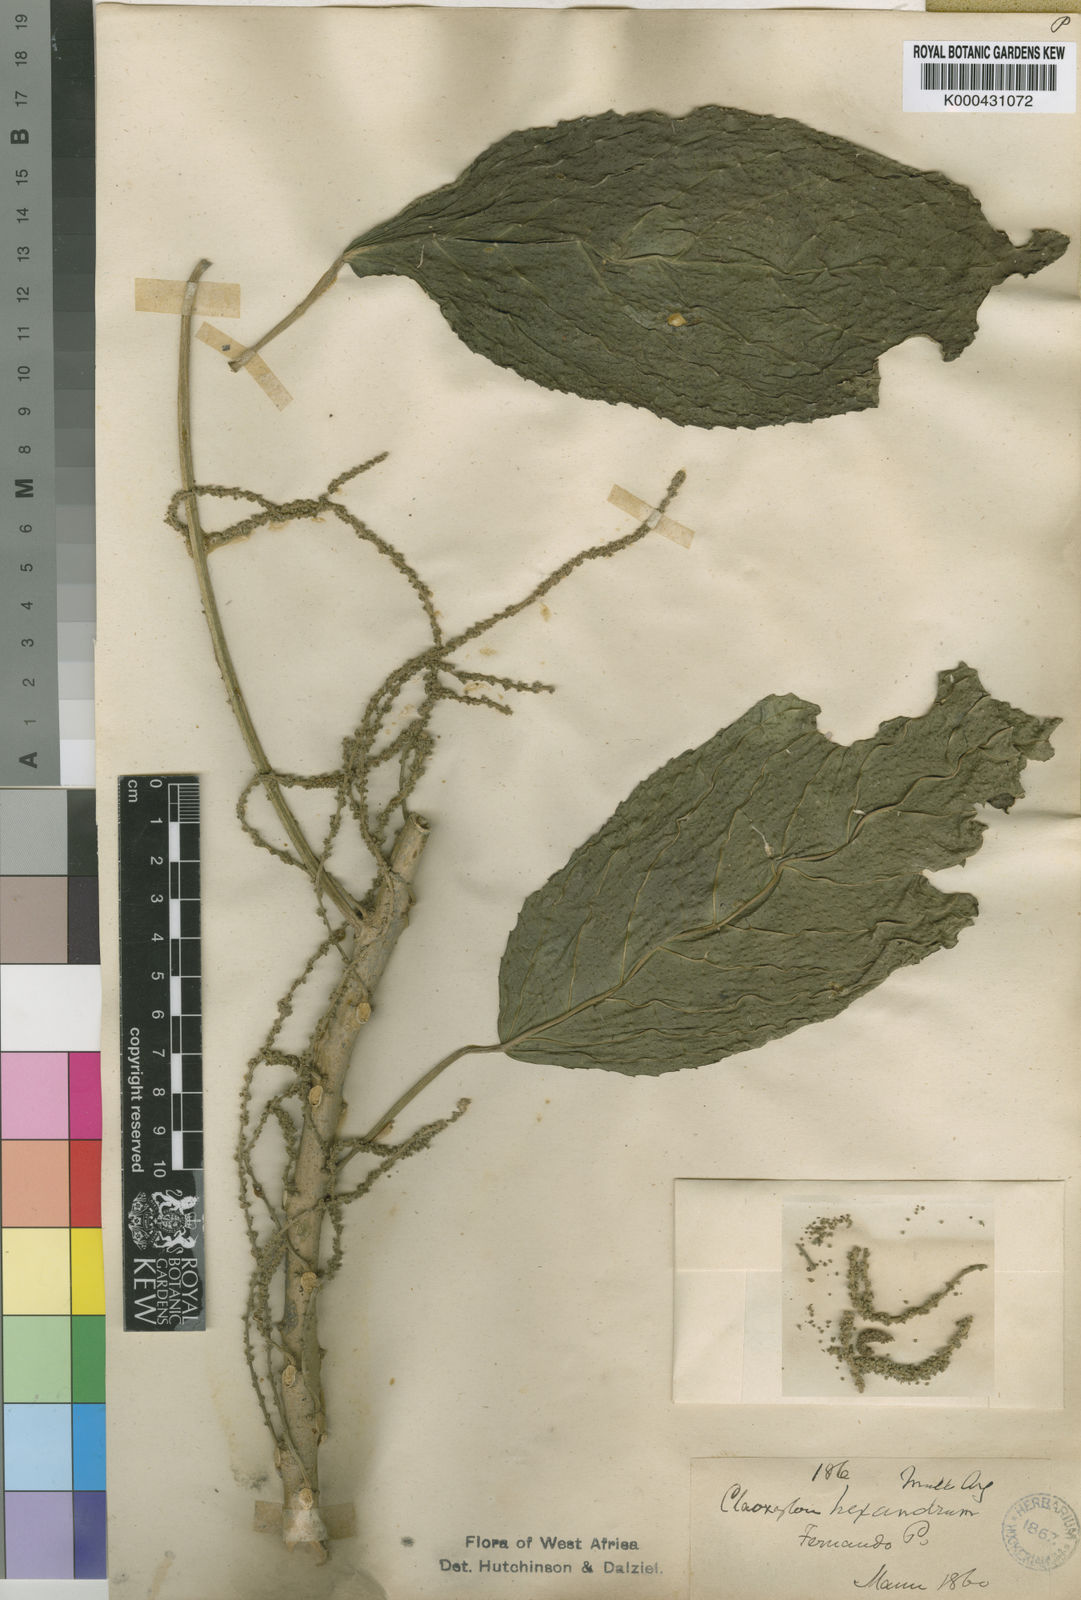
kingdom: Plantae
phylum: Tracheophyta
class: Magnoliopsida
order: Malpighiales
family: Euphorbiaceae
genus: Discoclaoxylon
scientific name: Discoclaoxylon
